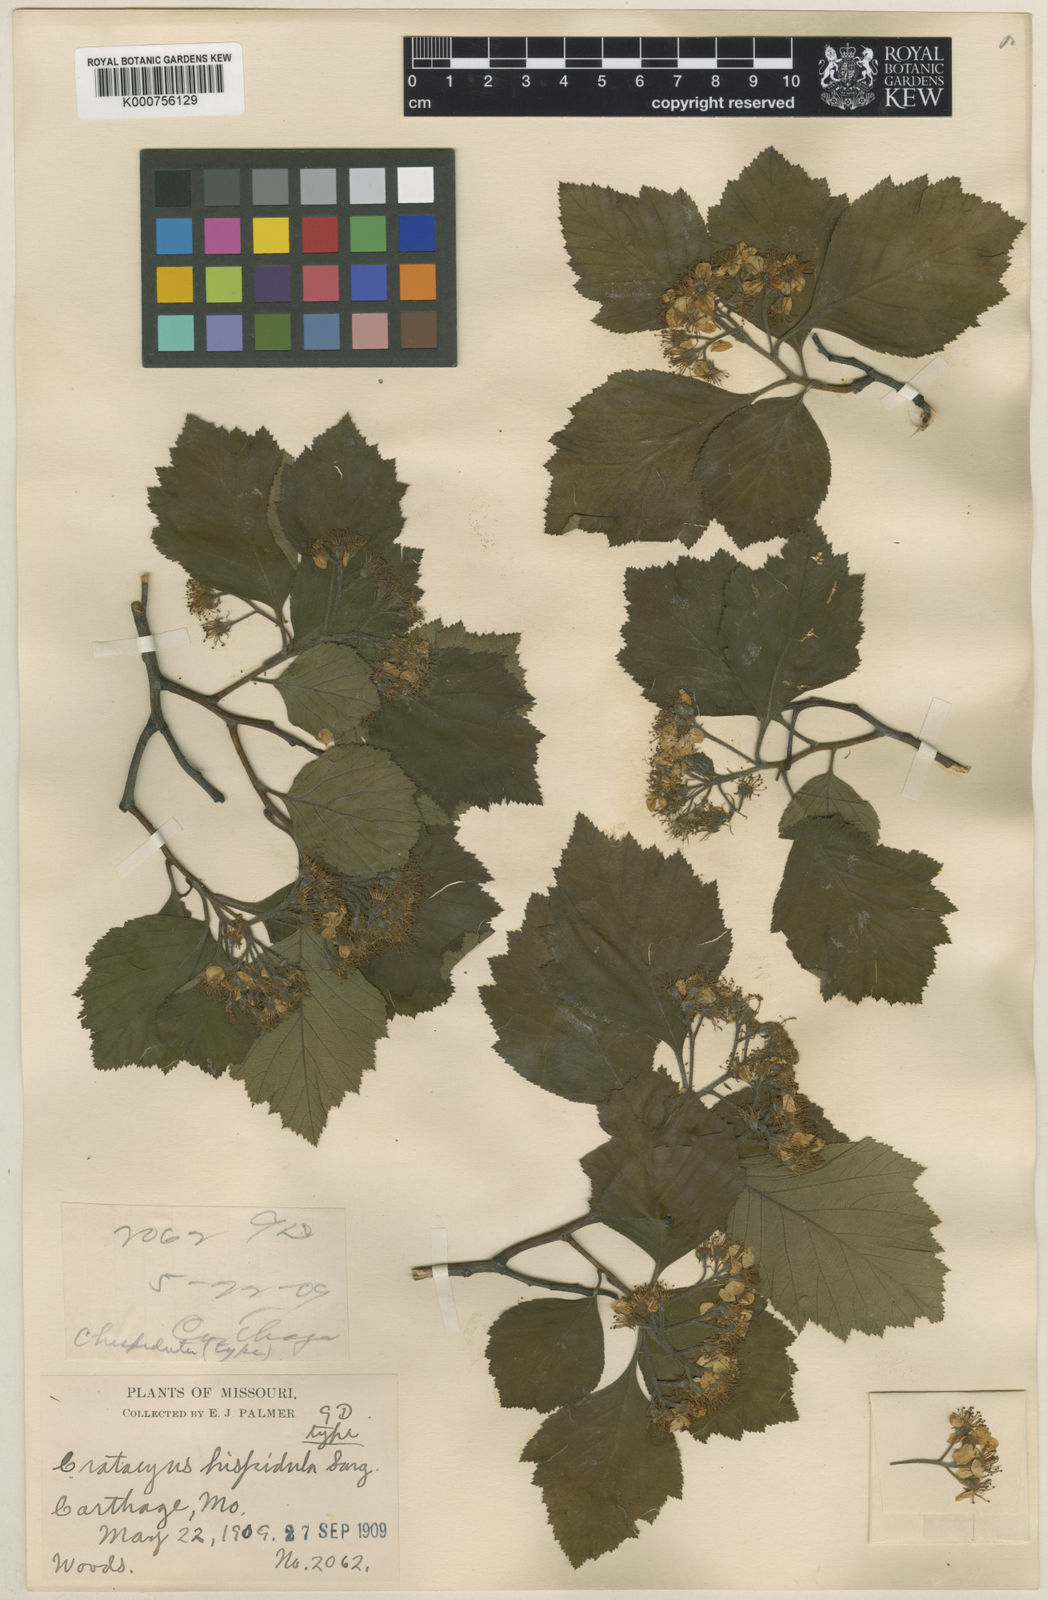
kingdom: Plantae
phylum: Tracheophyta
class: Magnoliopsida
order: Rosales
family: Rosaceae
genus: Crataegus
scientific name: Crataegus calpodendron
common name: Pear hawthorn
